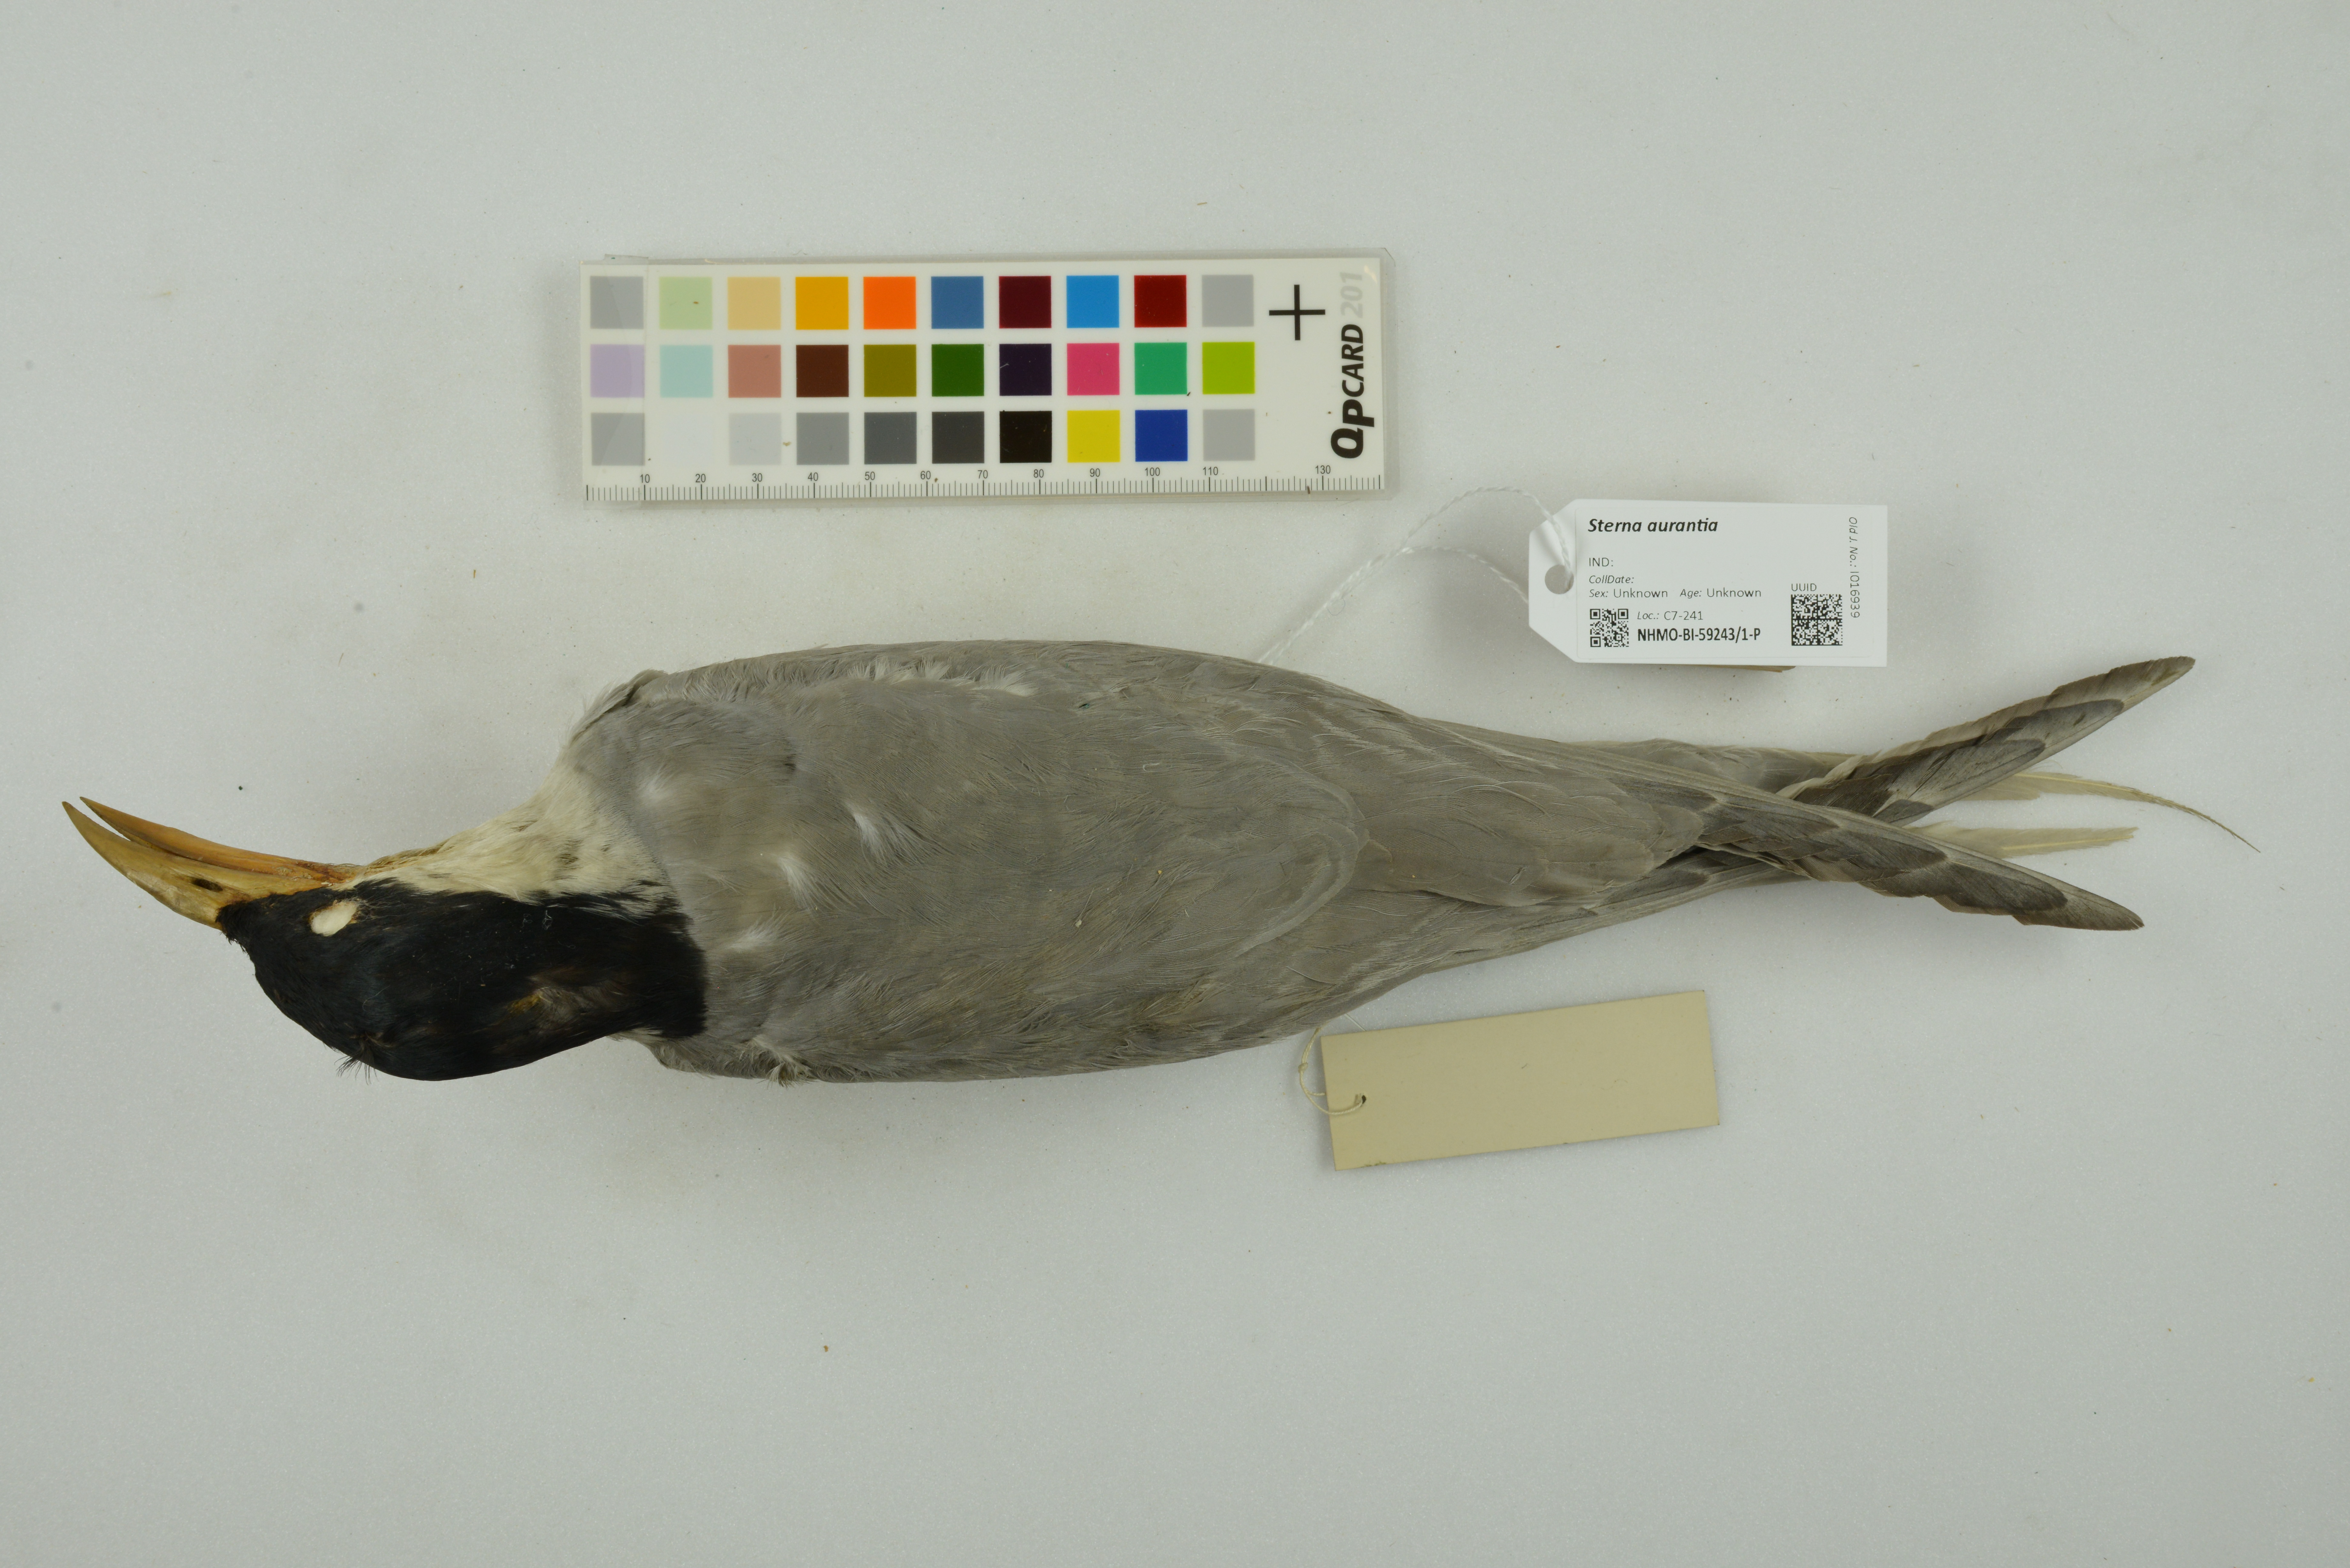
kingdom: Animalia
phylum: Chordata
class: Aves
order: Charadriiformes
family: Laridae
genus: Sterna
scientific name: Sterna aurantia
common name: River tern
